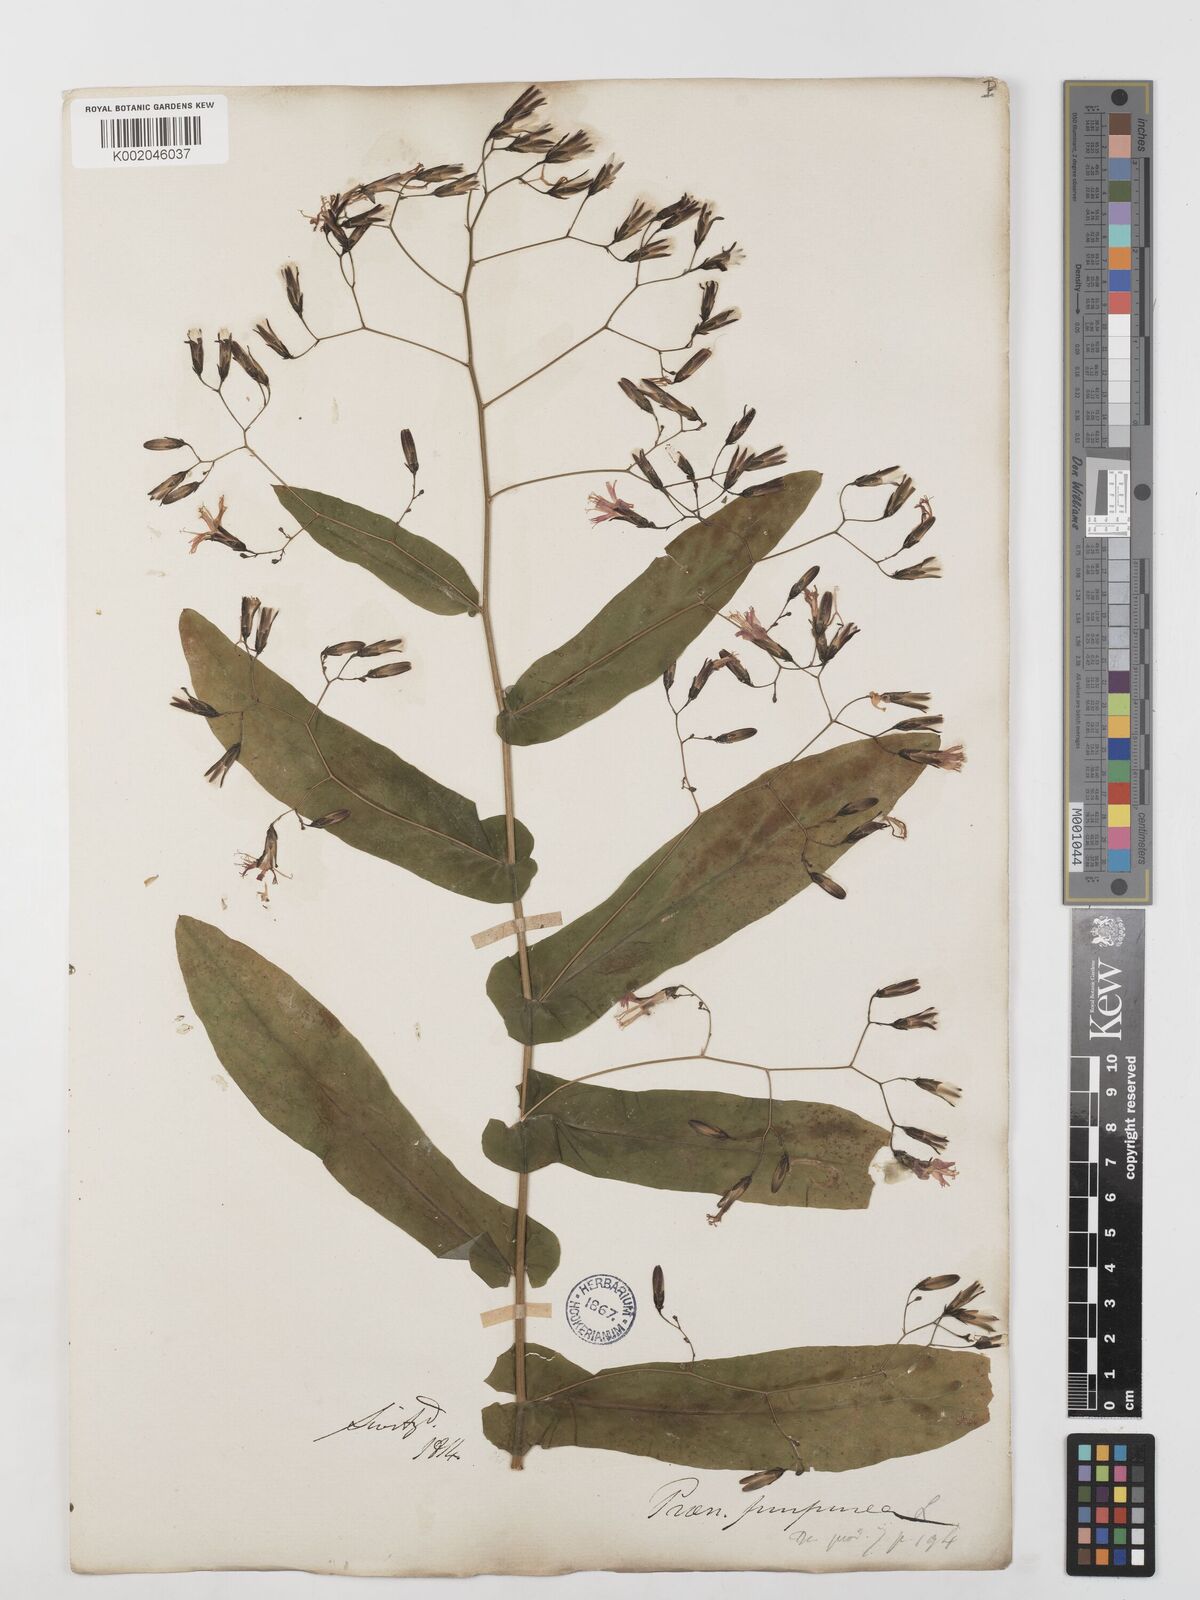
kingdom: Plantae
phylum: Tracheophyta
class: Magnoliopsida
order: Asterales
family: Asteraceae
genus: Prenanthes
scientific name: Prenanthes purpurea
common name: Purple lettuce
